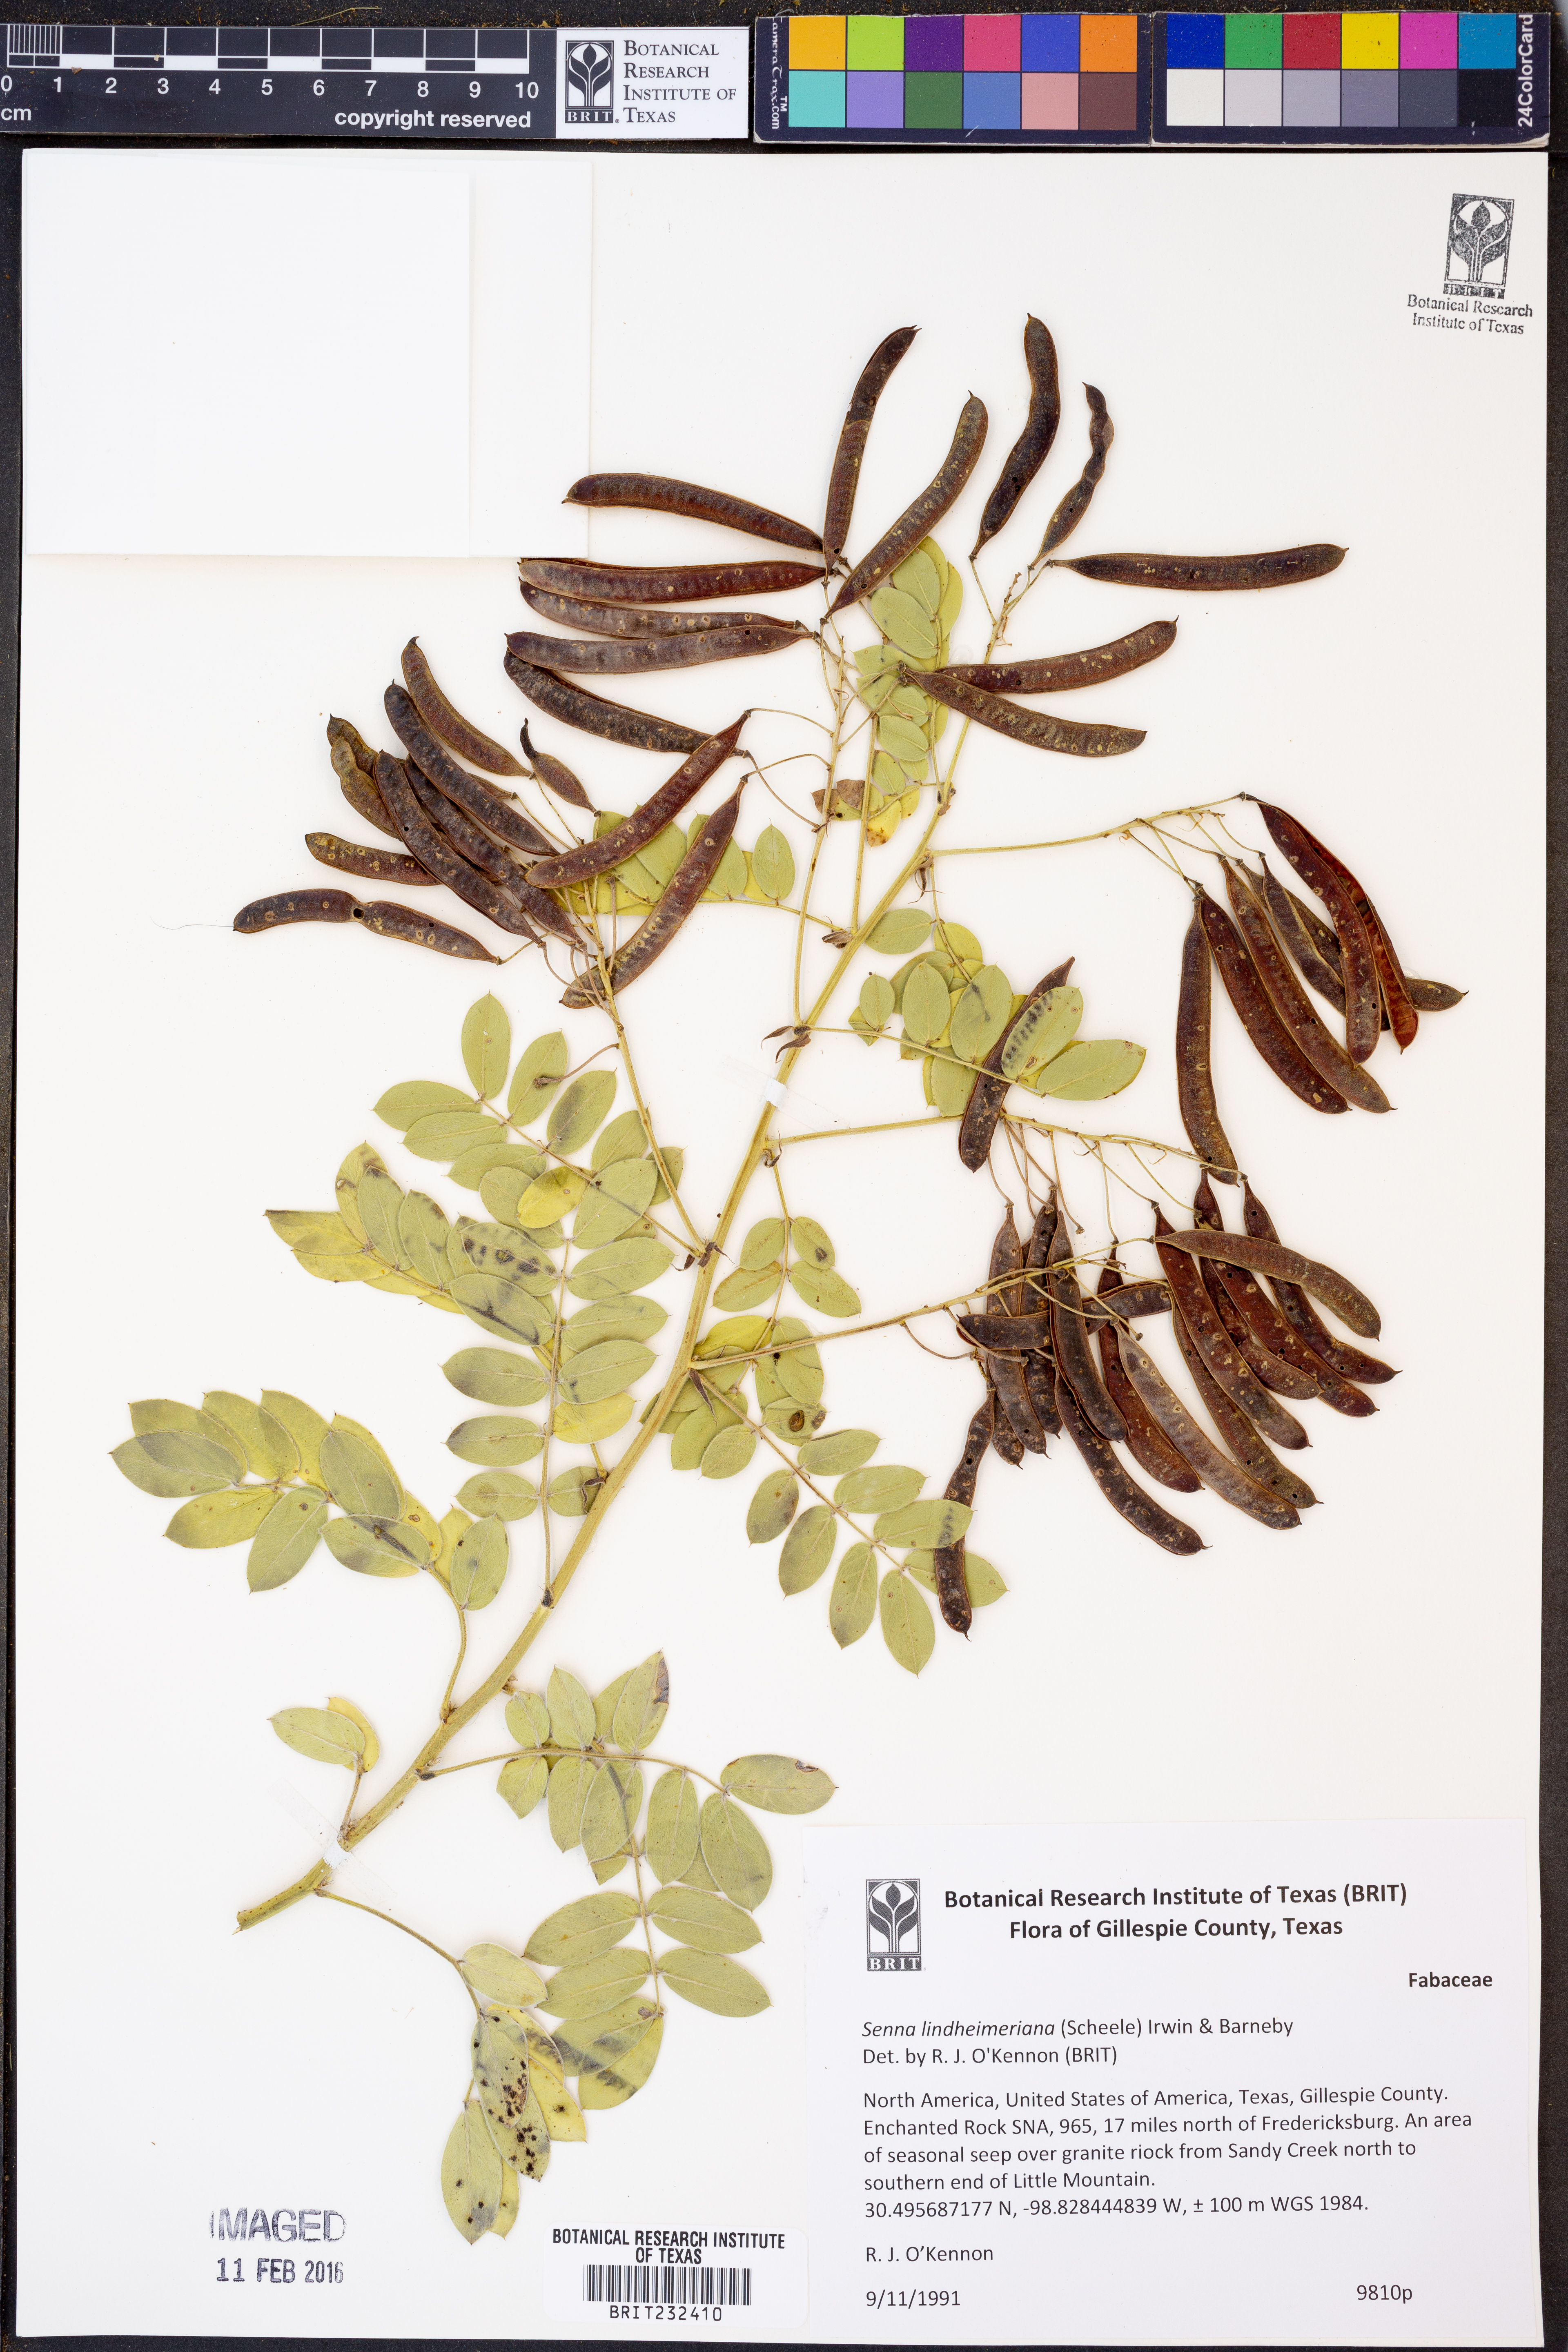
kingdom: Plantae
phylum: Tracheophyta
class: Magnoliopsida
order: Fabales
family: Fabaceae
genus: Senna
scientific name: Senna lindheimeriana
